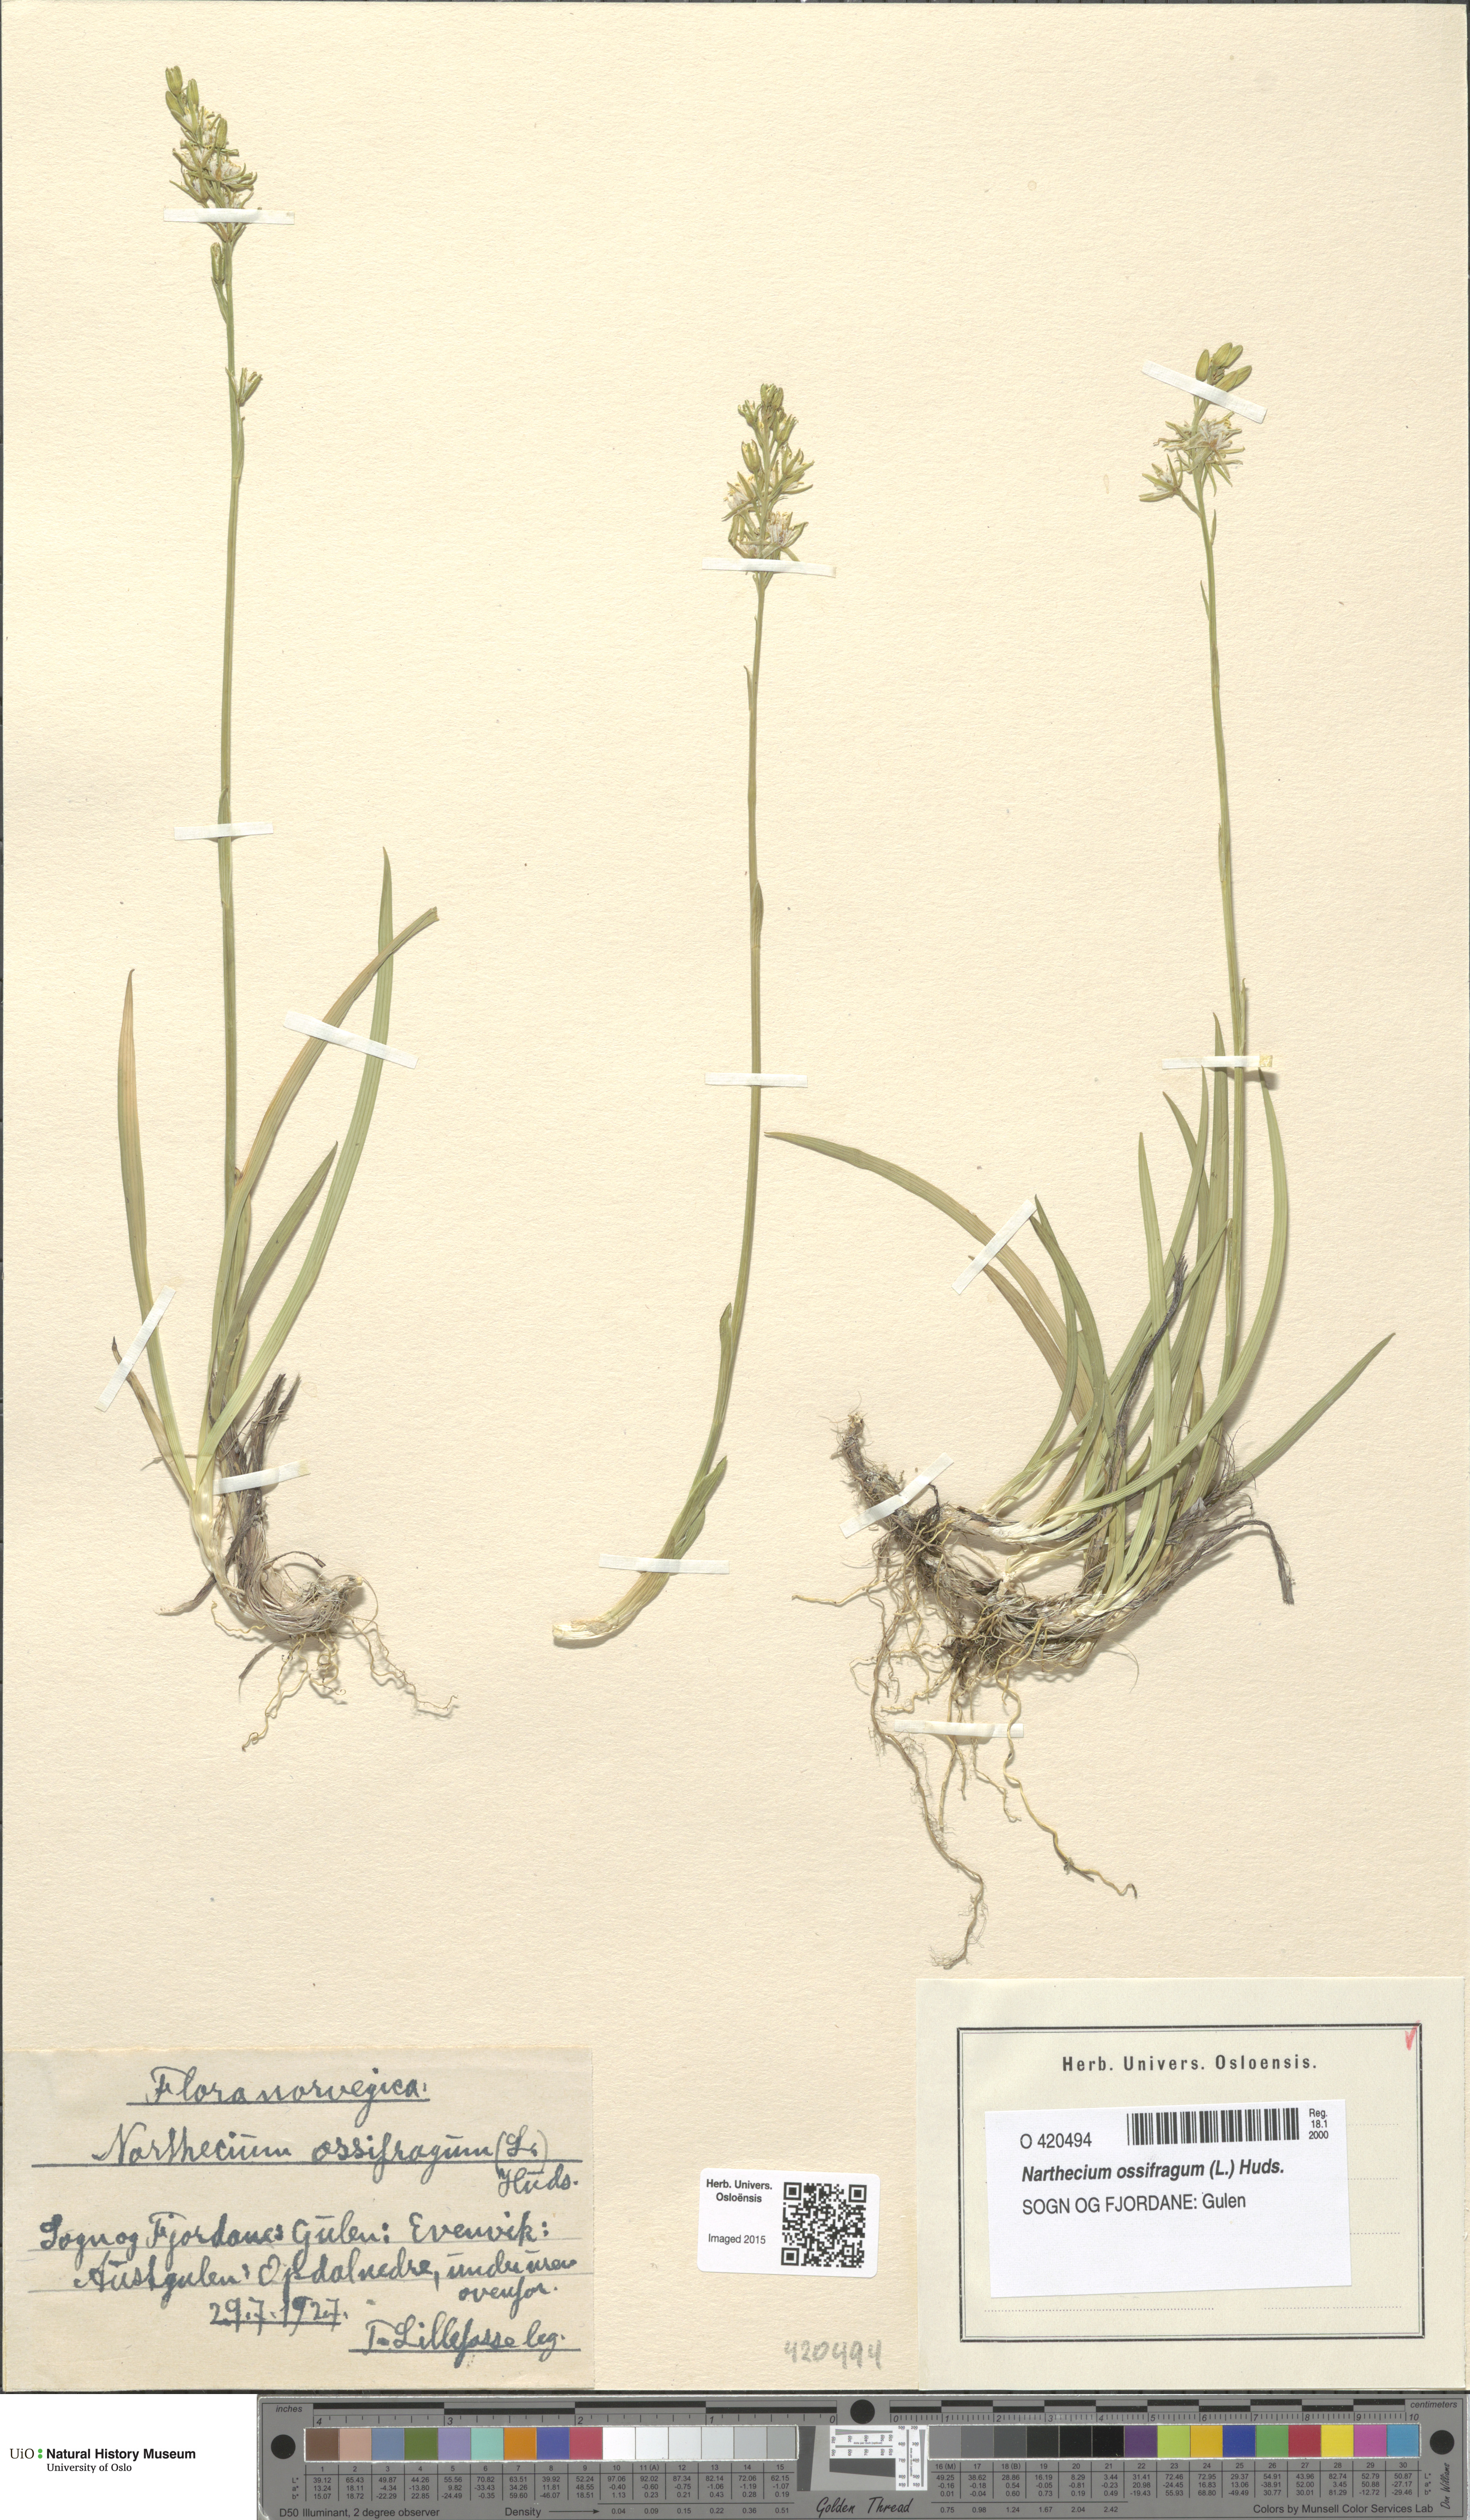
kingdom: Plantae
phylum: Tracheophyta
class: Liliopsida
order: Dioscoreales
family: Nartheciaceae
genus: Narthecium
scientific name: Narthecium ossifragum
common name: Bog asphodel
